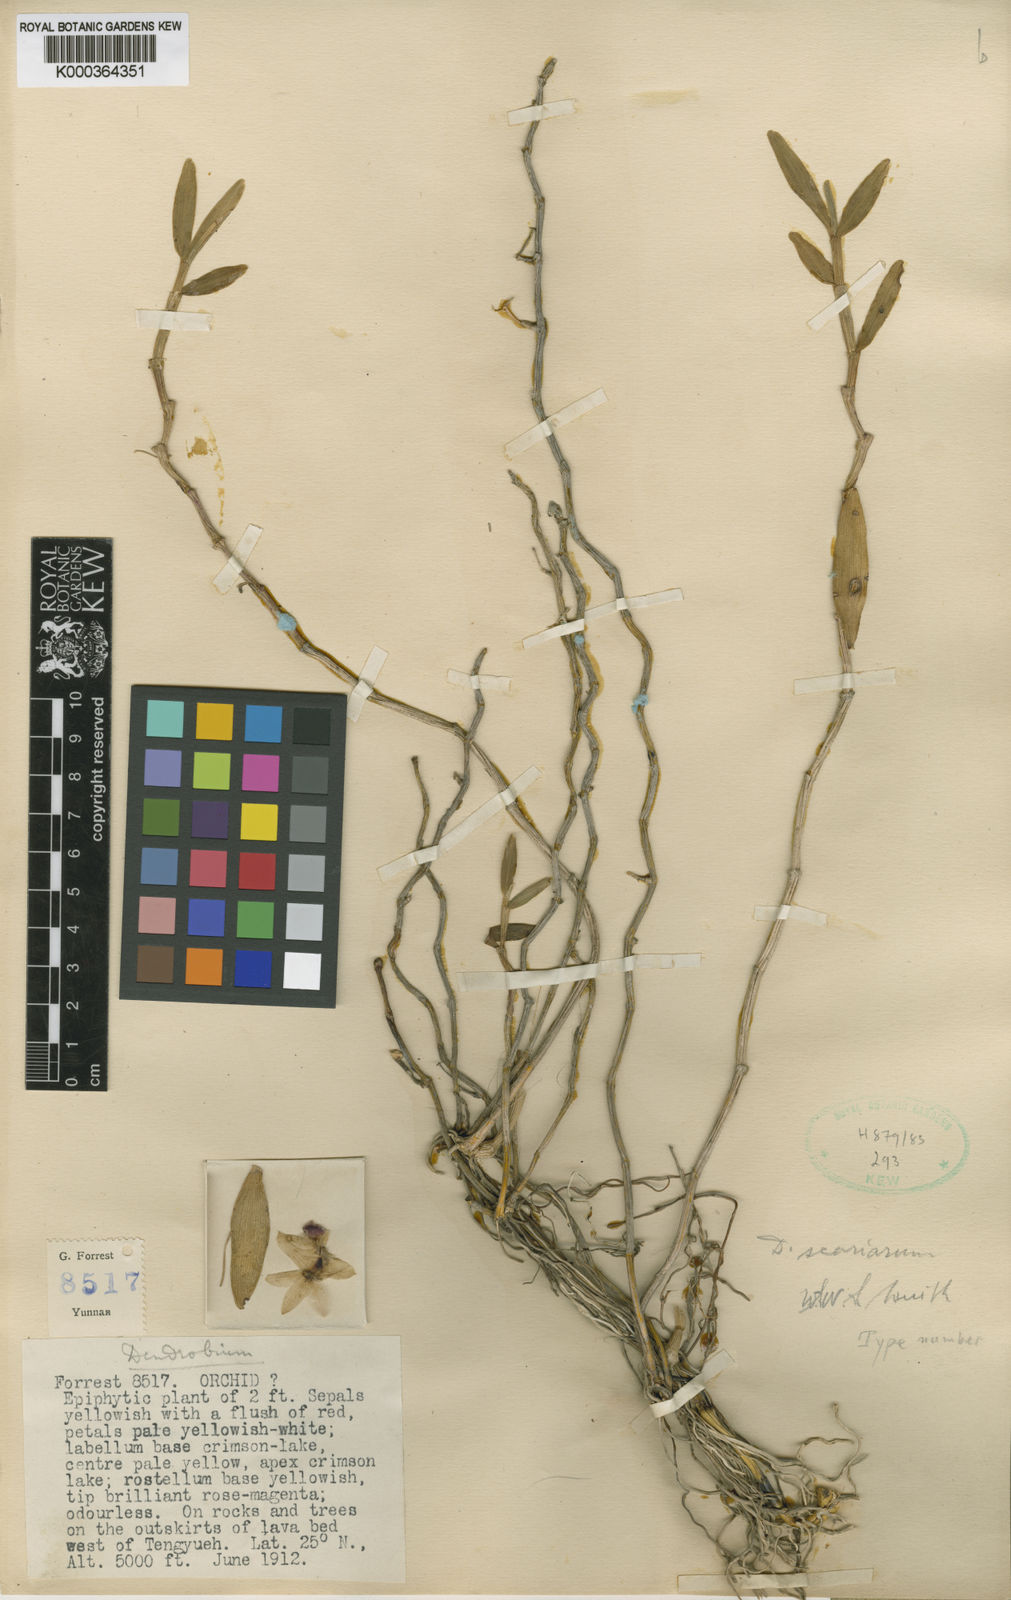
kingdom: Plantae
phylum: Tracheophyta
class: Liliopsida
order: Asparagales
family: Orchidaceae
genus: Dendrobium
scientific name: Dendrobium scoriarum
